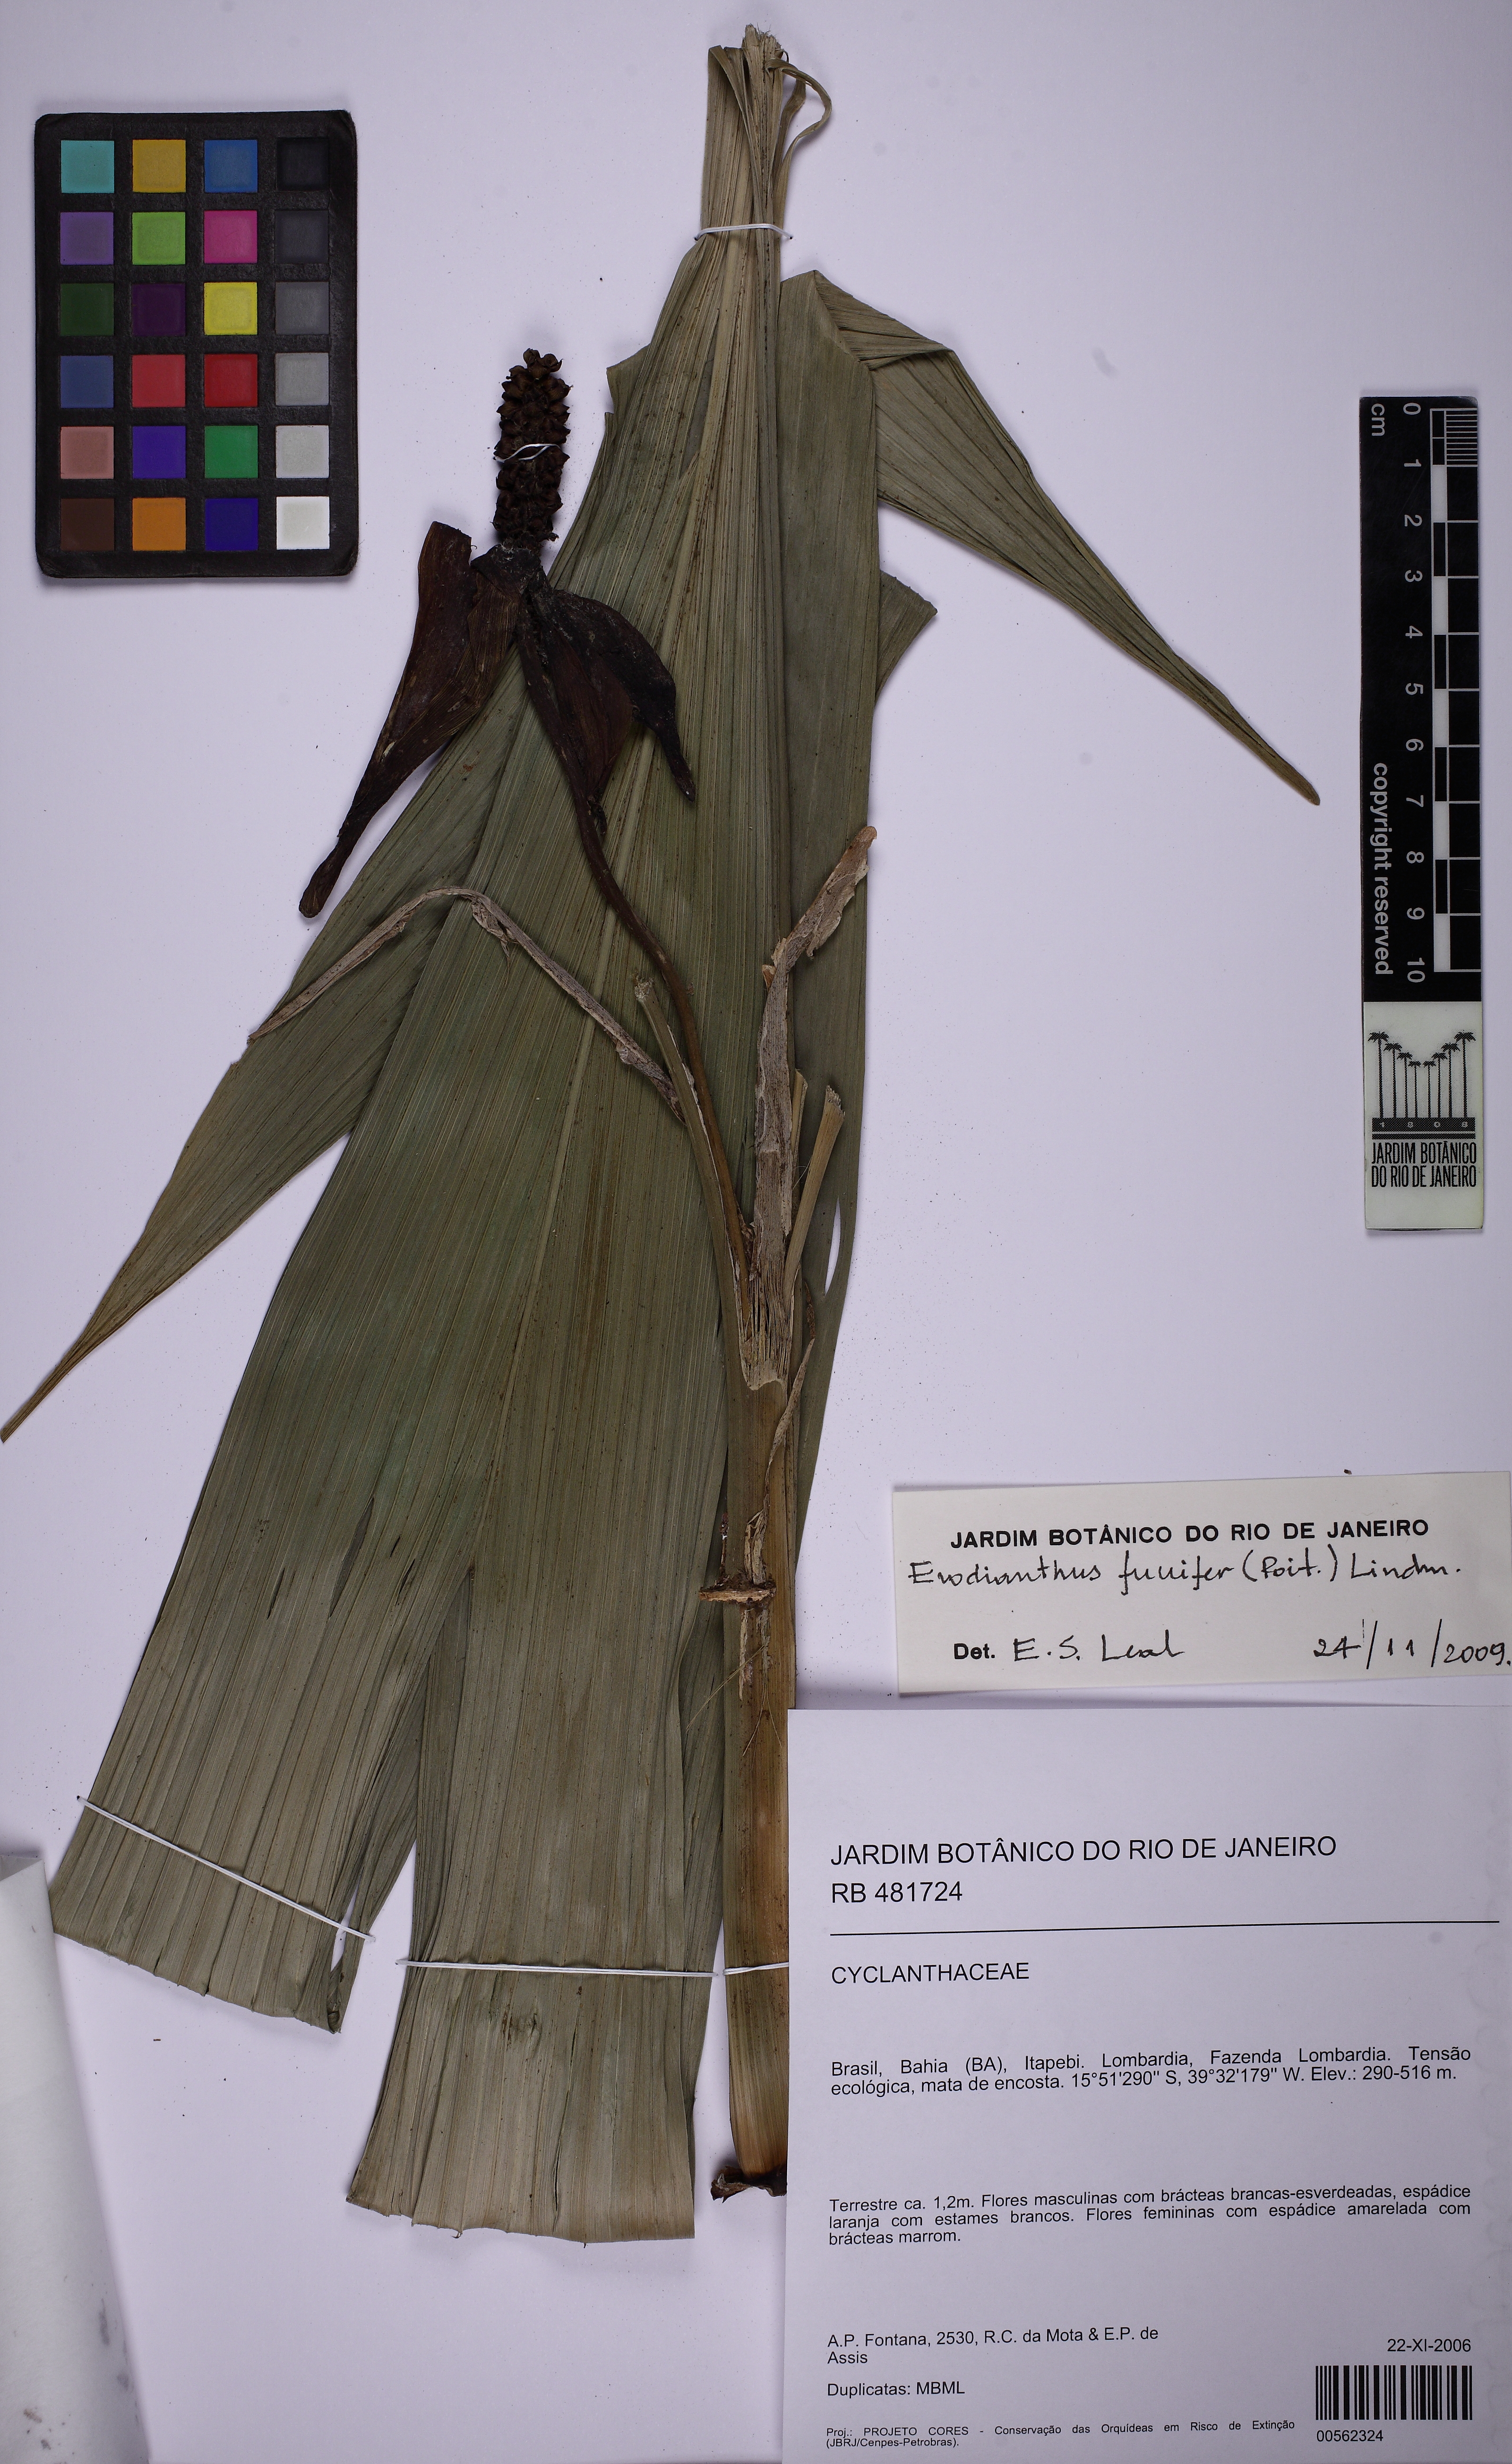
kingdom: Plantae
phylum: Tracheophyta
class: Liliopsida
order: Pandanales
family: Cyclanthaceae
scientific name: Cyclanthaceae
